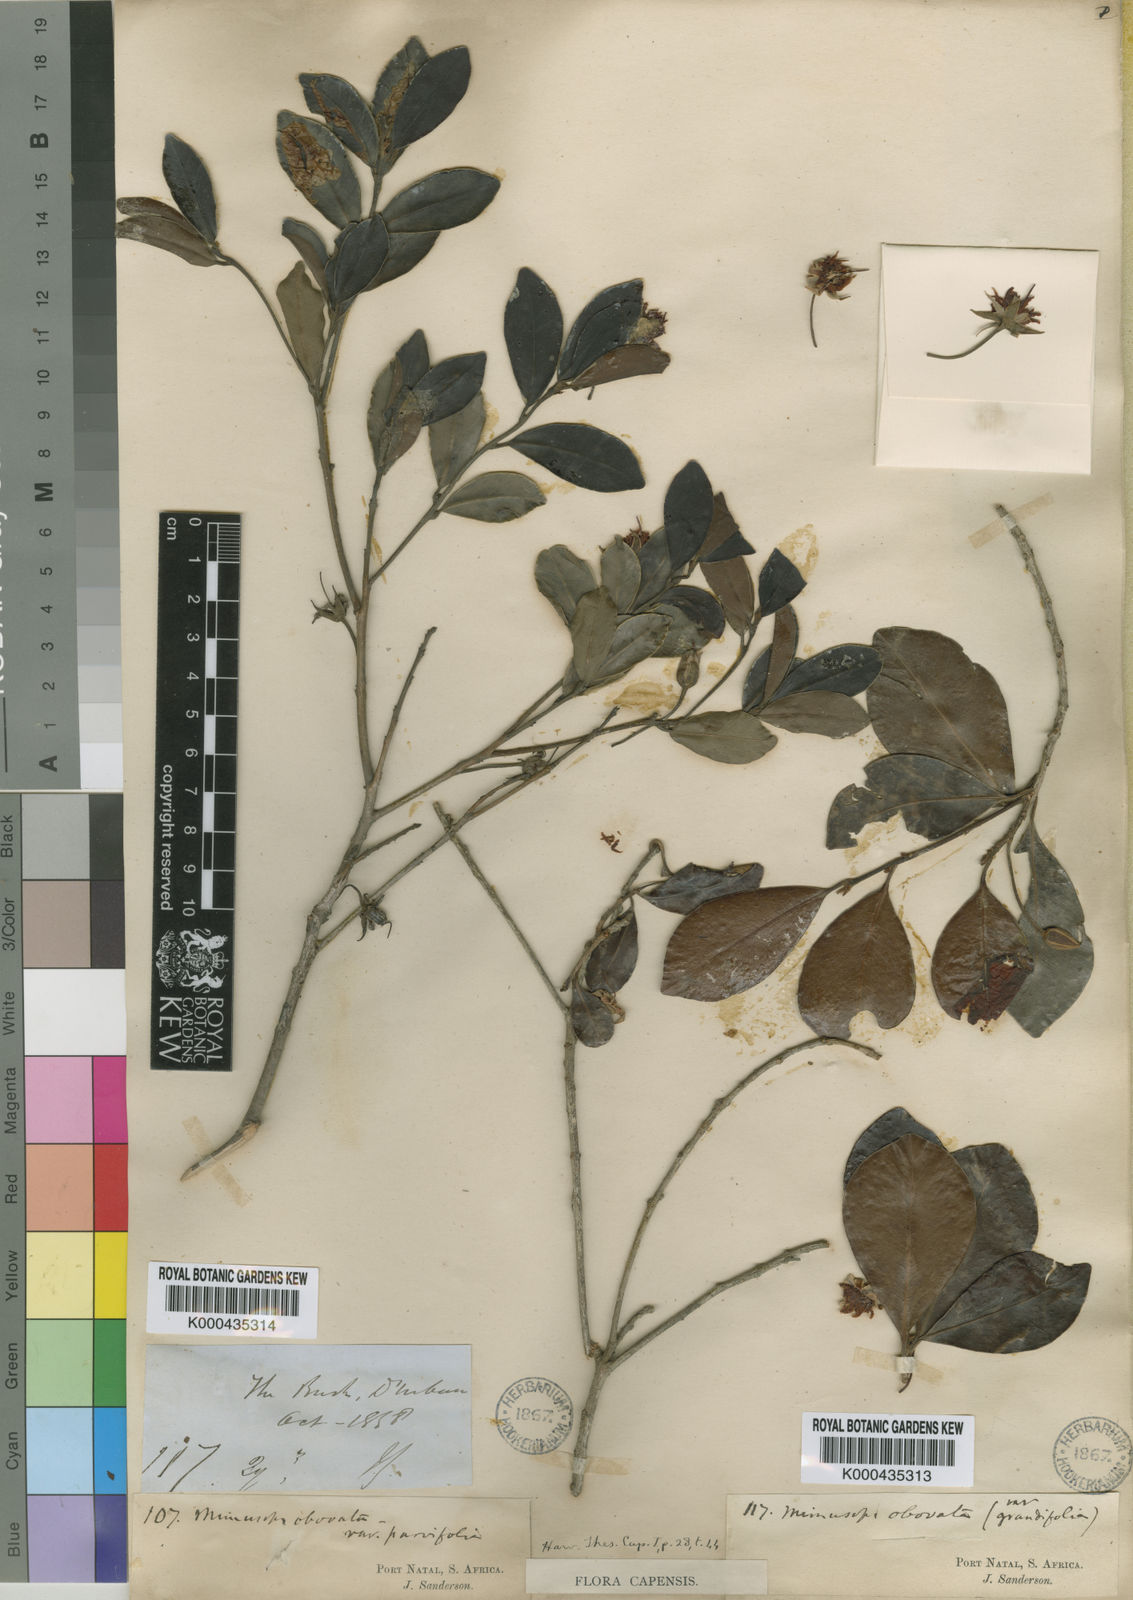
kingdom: Plantae
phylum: Tracheophyta
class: Magnoliopsida
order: Ericales
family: Sapotaceae
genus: Mimusops
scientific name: Mimusops obovata
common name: Red milkwood
